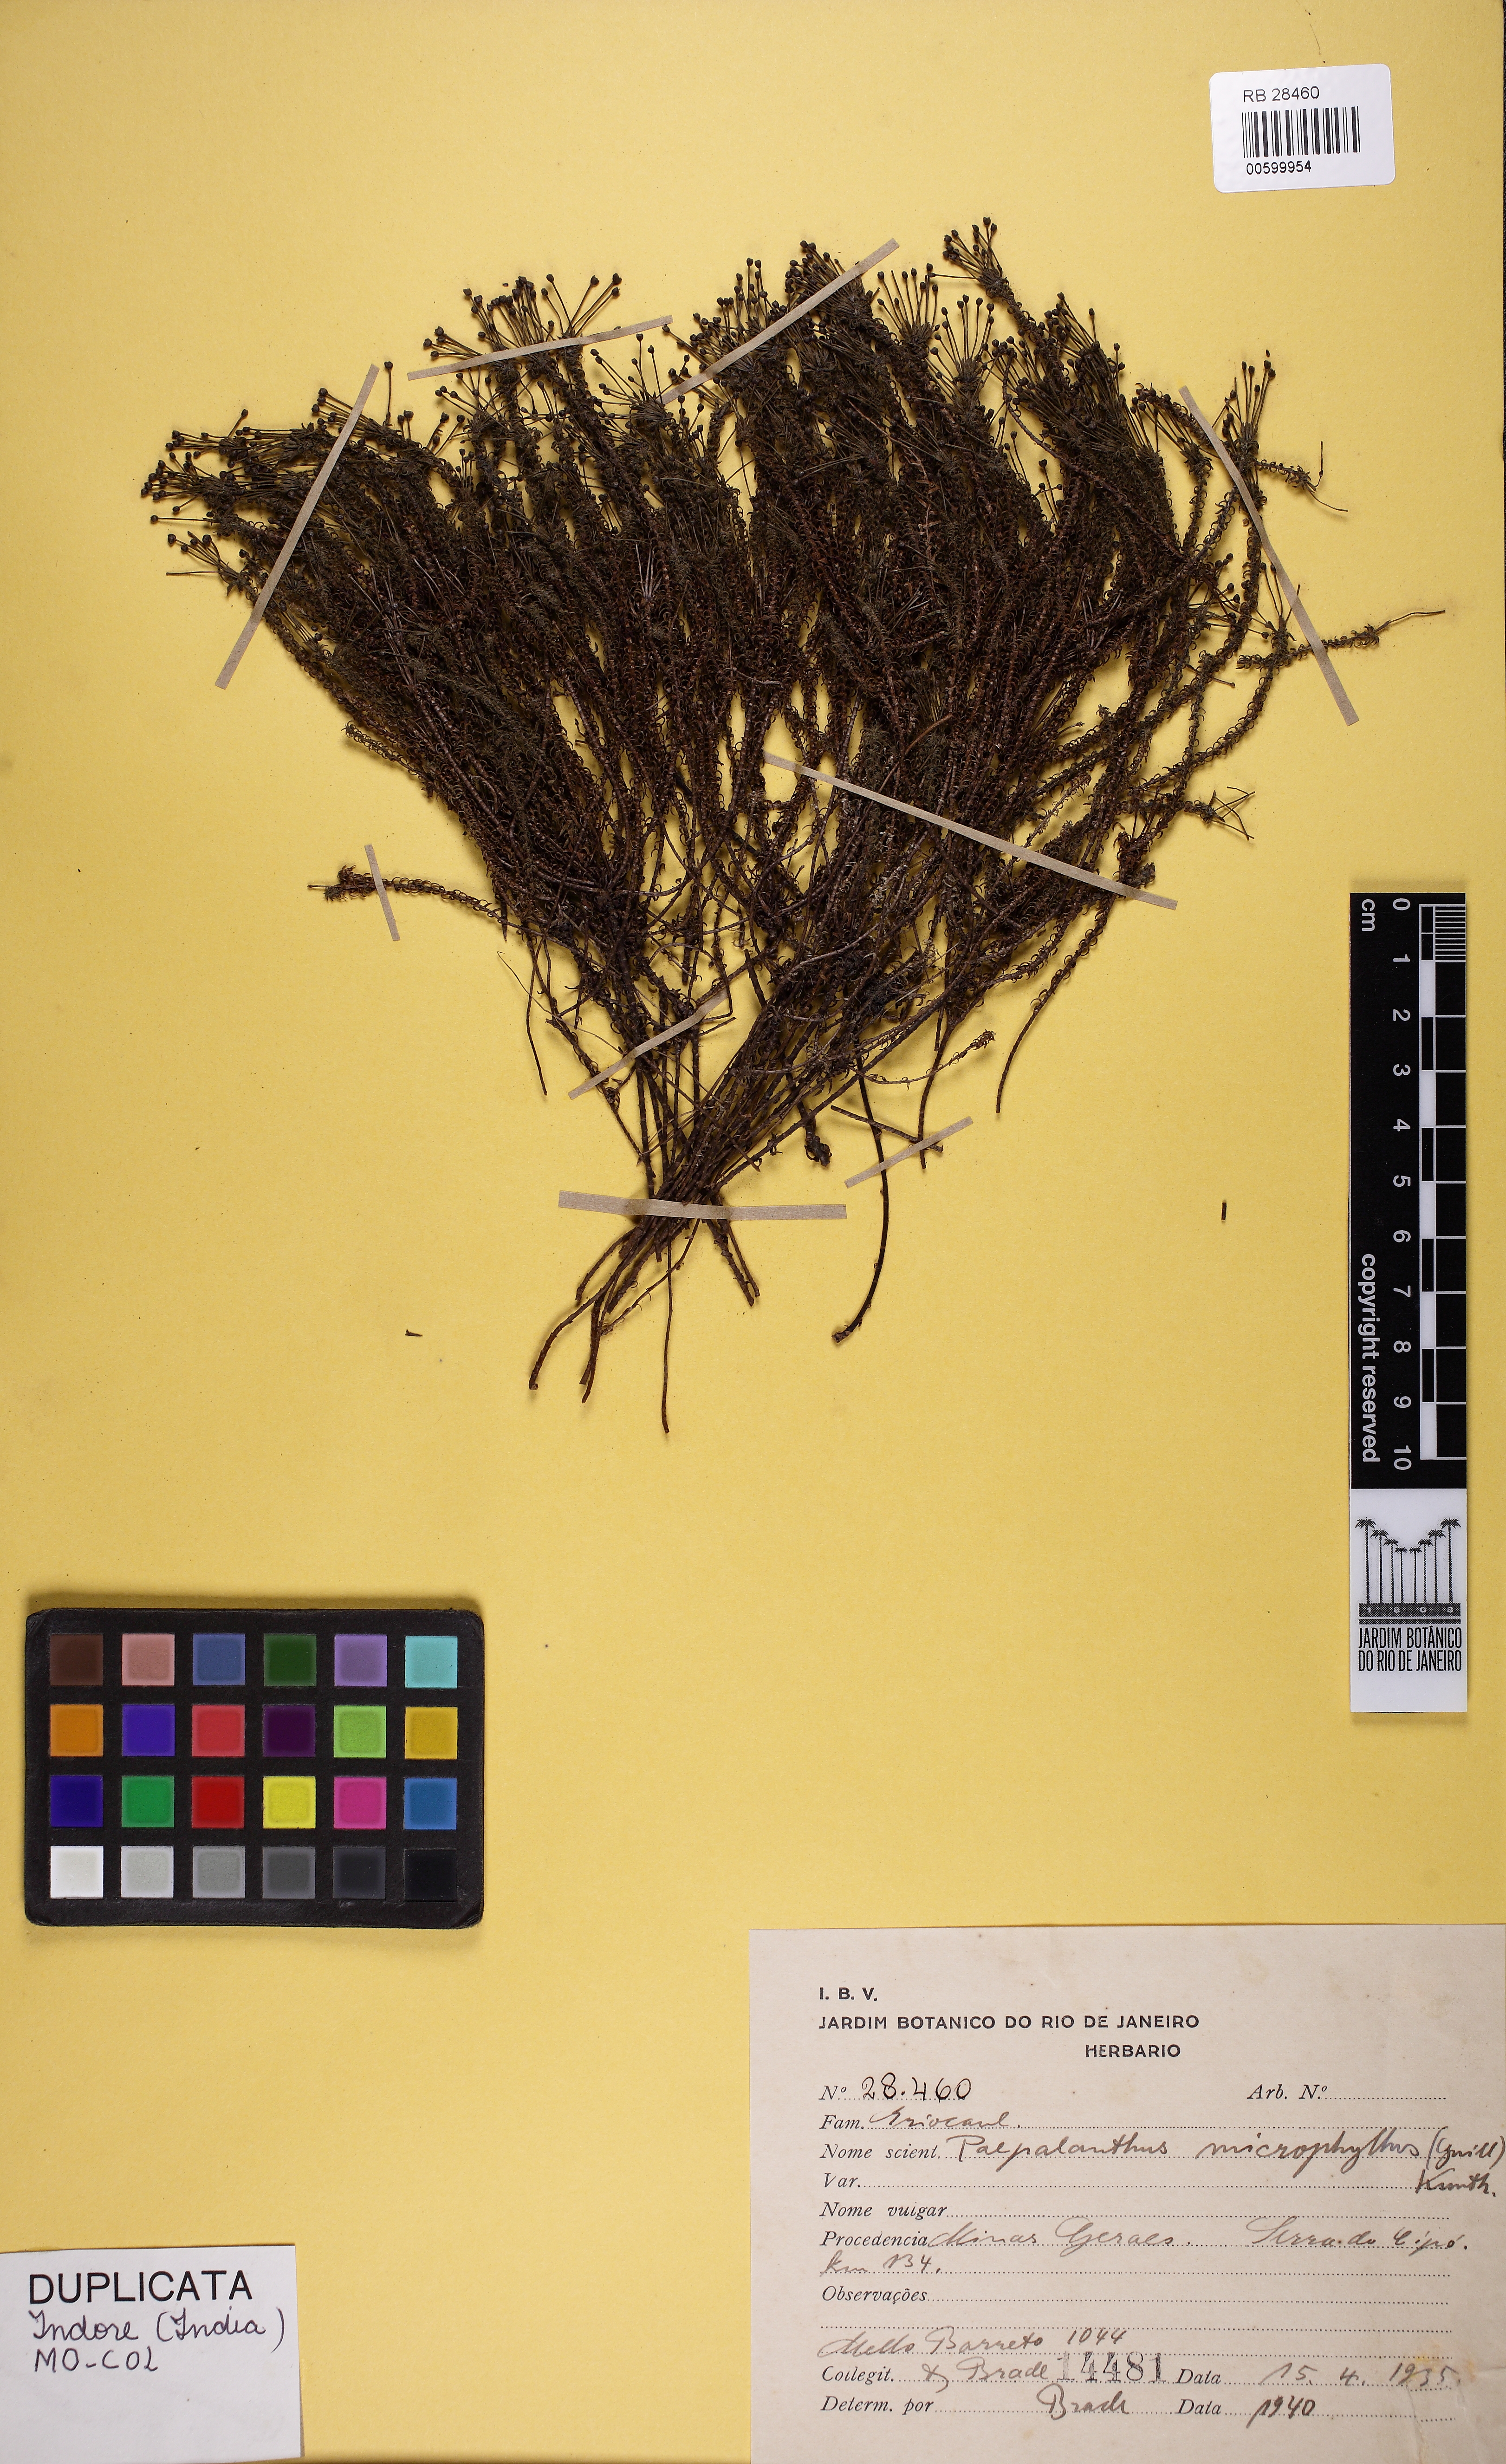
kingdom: Plantae
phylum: Tracheophyta
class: Liliopsida
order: Poales
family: Eriocaulaceae
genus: Paepalanthus
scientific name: Paepalanthus microphyllus
